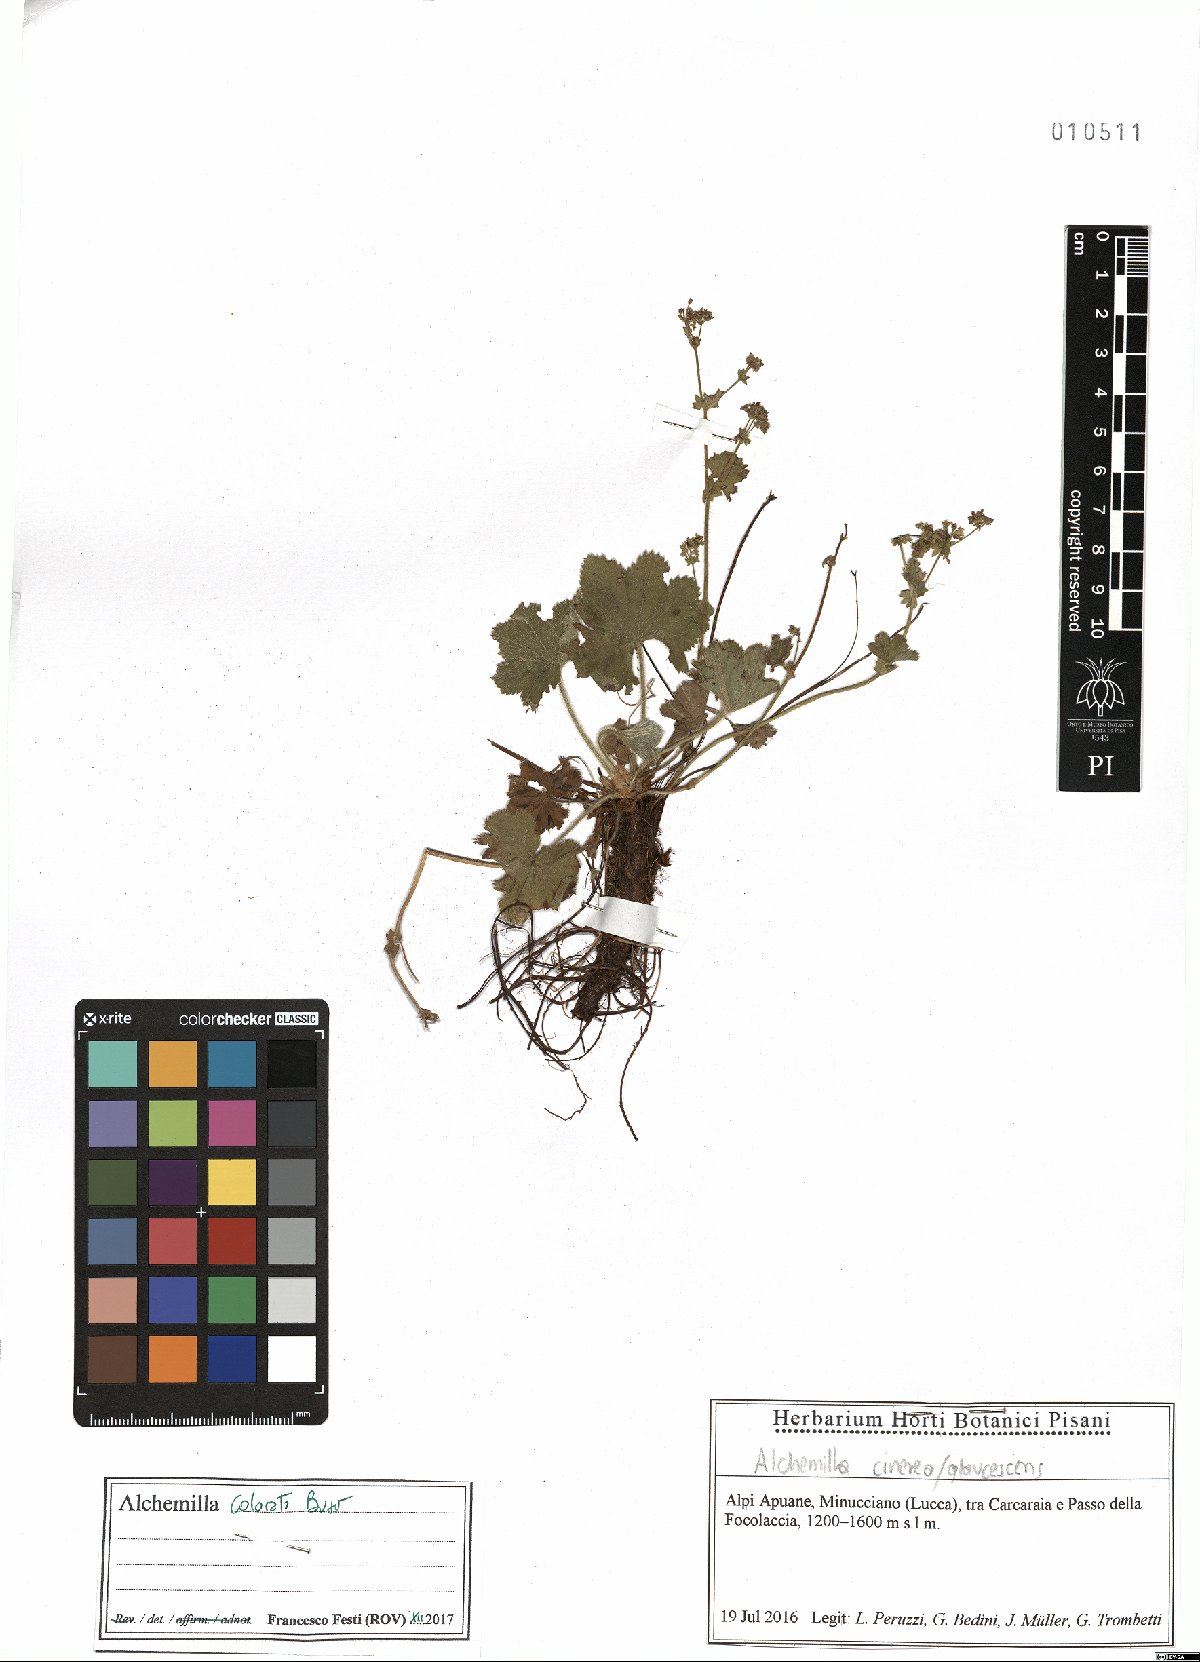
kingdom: Plantae
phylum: Tracheophyta
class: Magnoliopsida
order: Rosales
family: Rosaceae
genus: Alchemilla
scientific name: Alchemilla colorata
